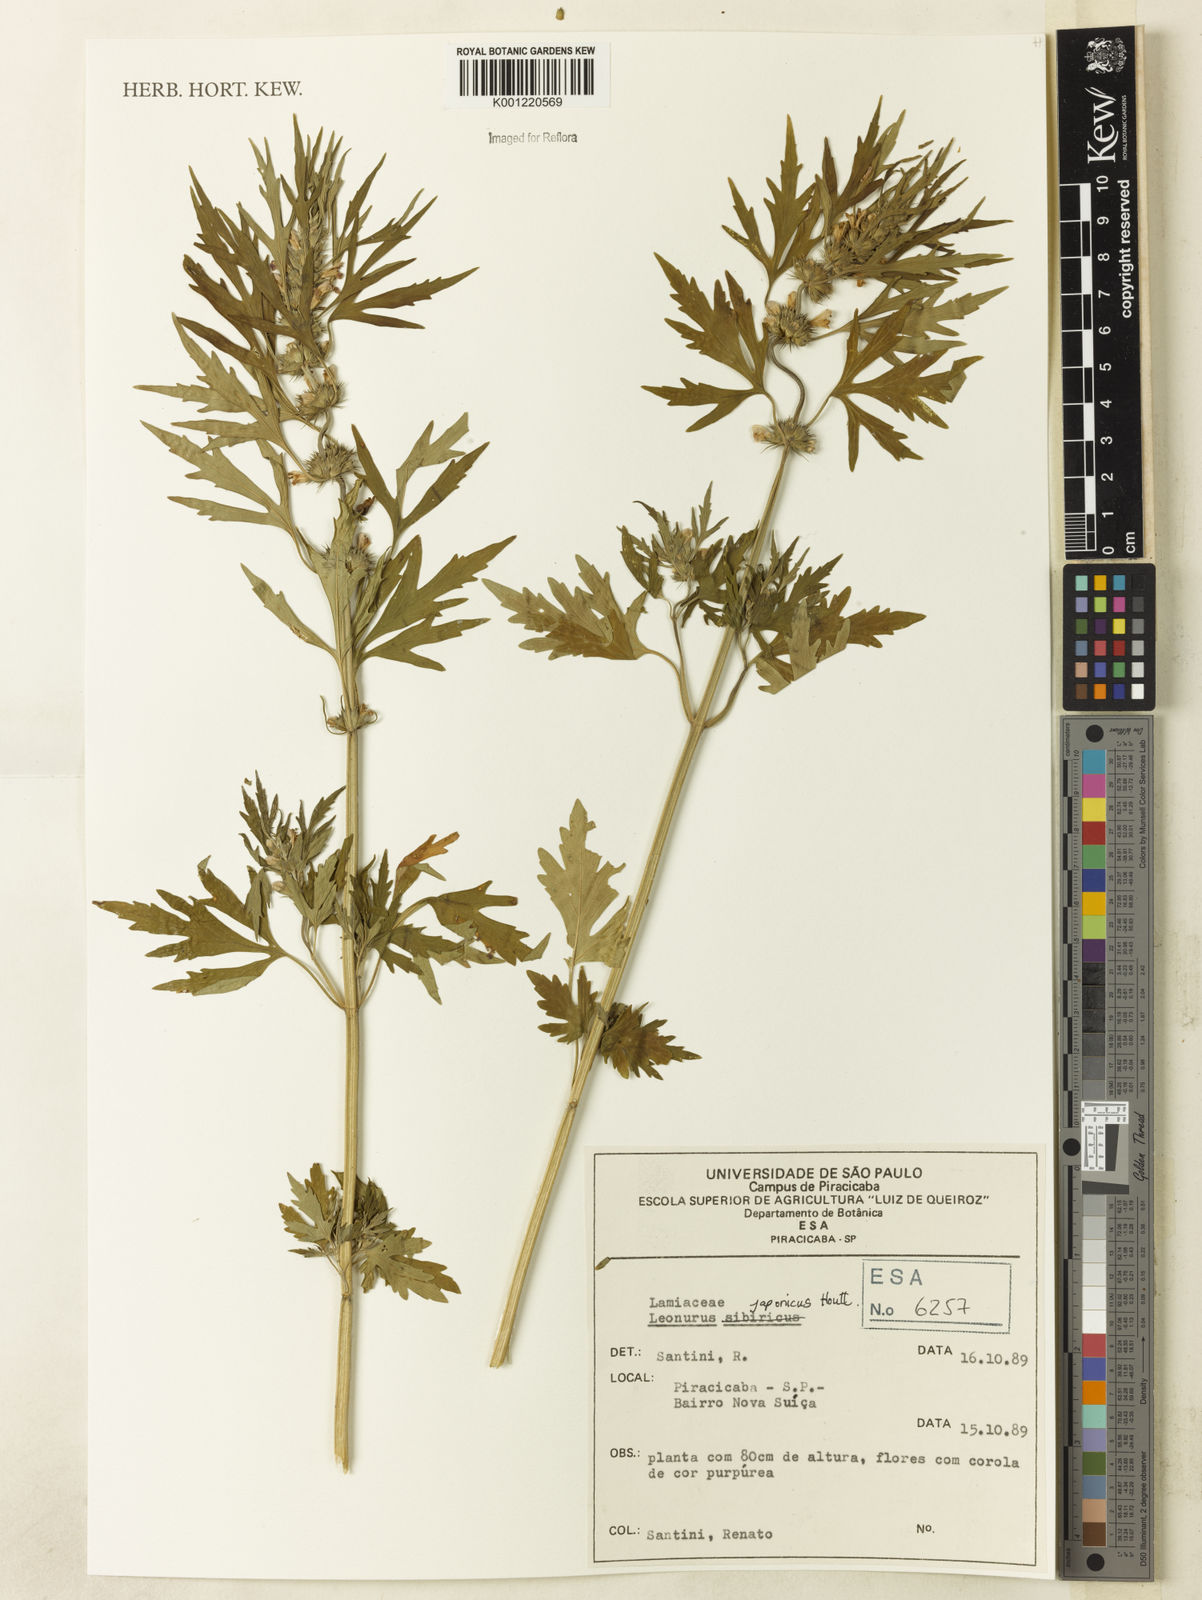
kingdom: Plantae
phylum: Tracheophyta
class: Magnoliopsida
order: Lamiales
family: Lamiaceae
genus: Leonurus
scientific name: Leonurus japonicus
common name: Honeyweed
